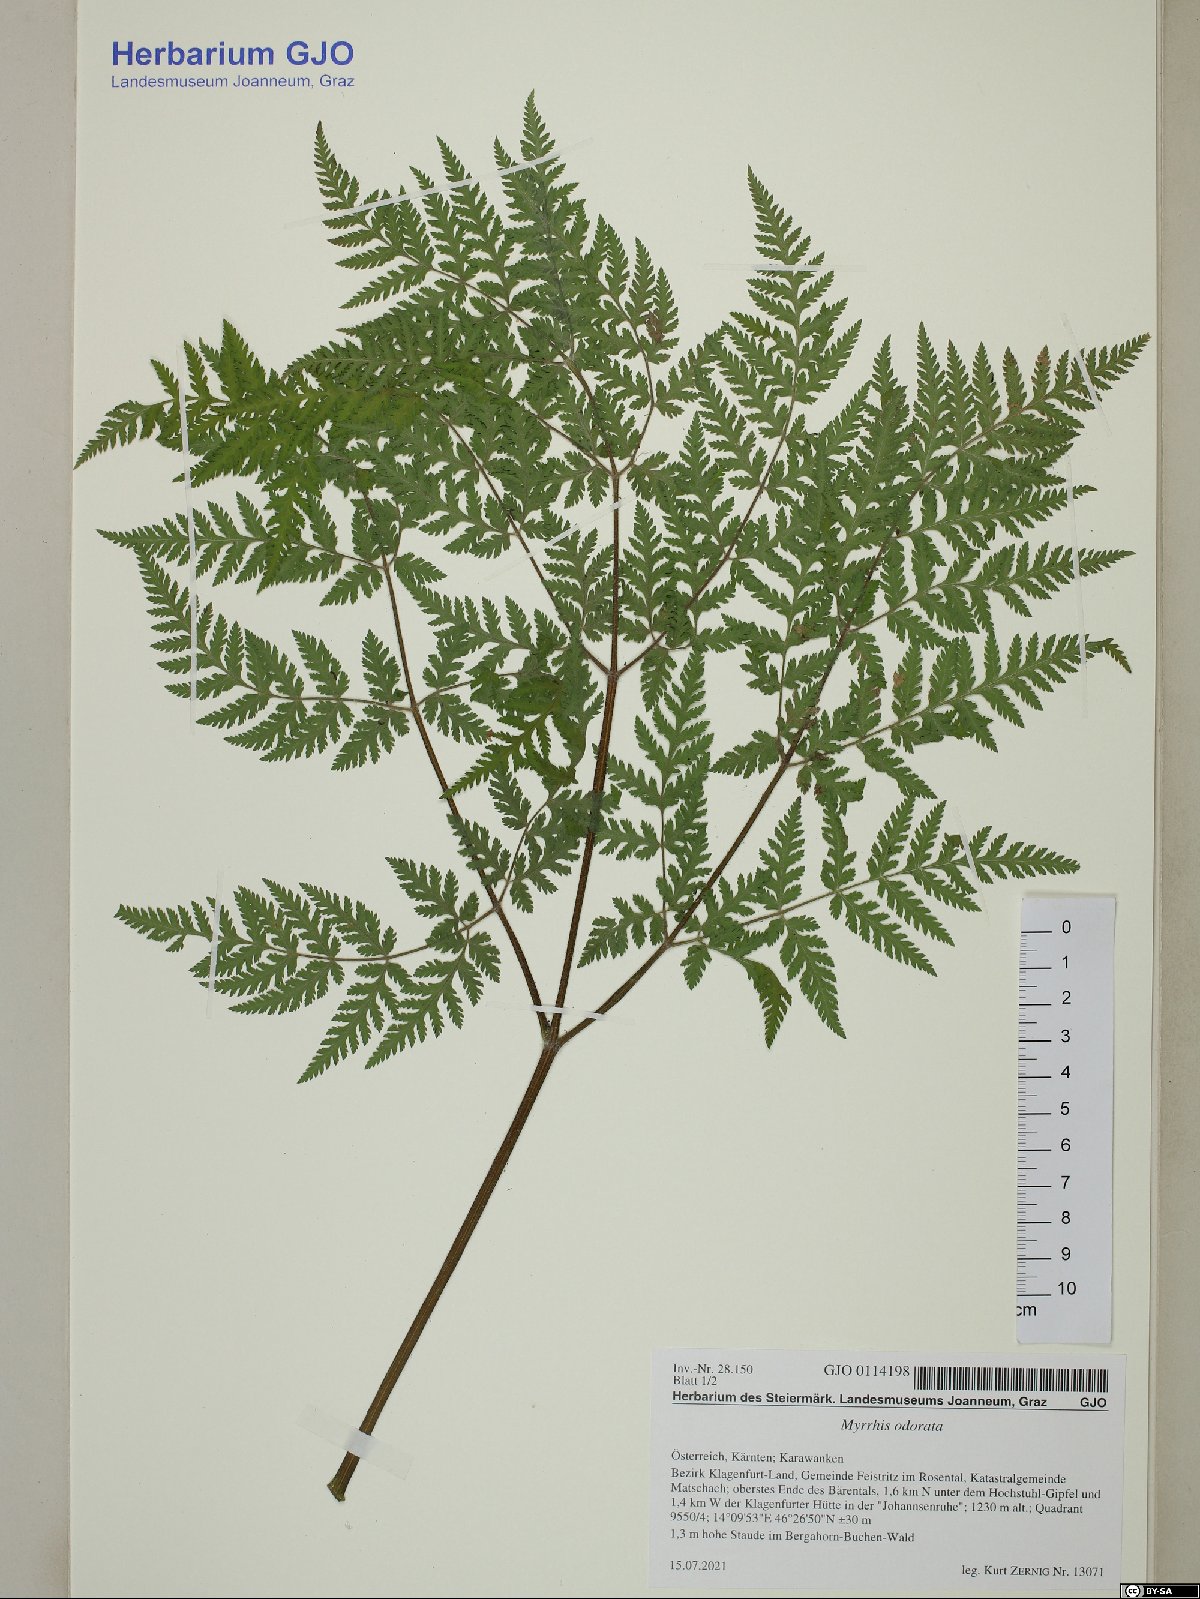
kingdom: Plantae
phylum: Tracheophyta
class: Magnoliopsida
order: Apiales
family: Apiaceae
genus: Myrrhis
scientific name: Myrrhis odorata
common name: Sweet cicely
